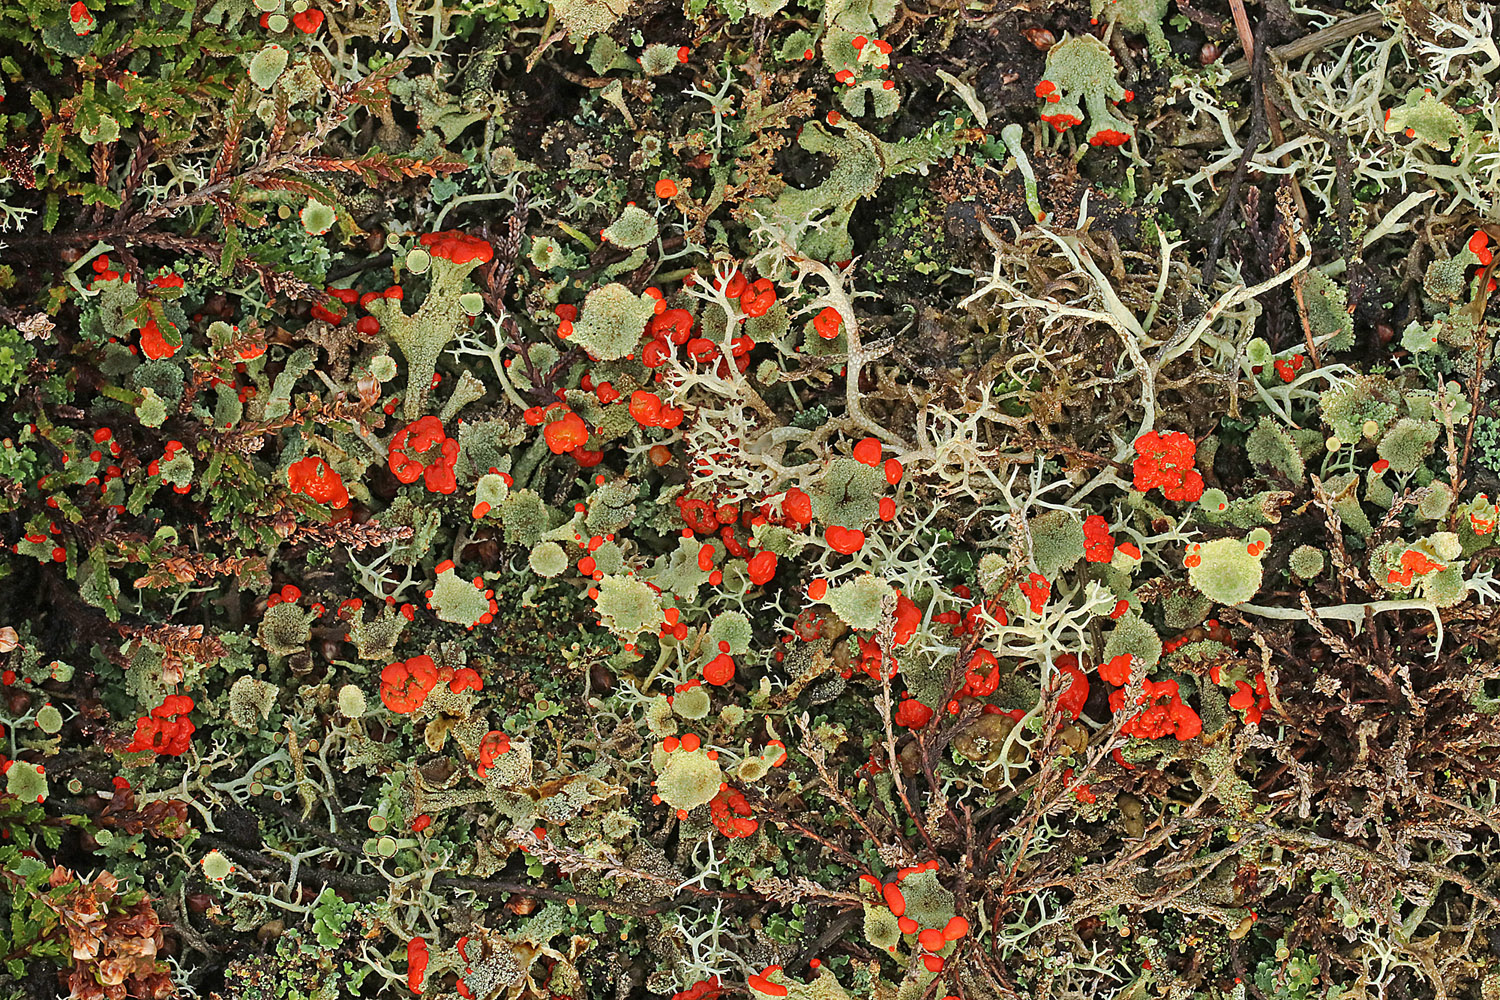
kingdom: Fungi
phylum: Ascomycota
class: Lecanoromycetes
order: Lecanorales
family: Cladoniaceae
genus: Cladonia
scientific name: Cladonia diversa
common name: rød bægerlav
